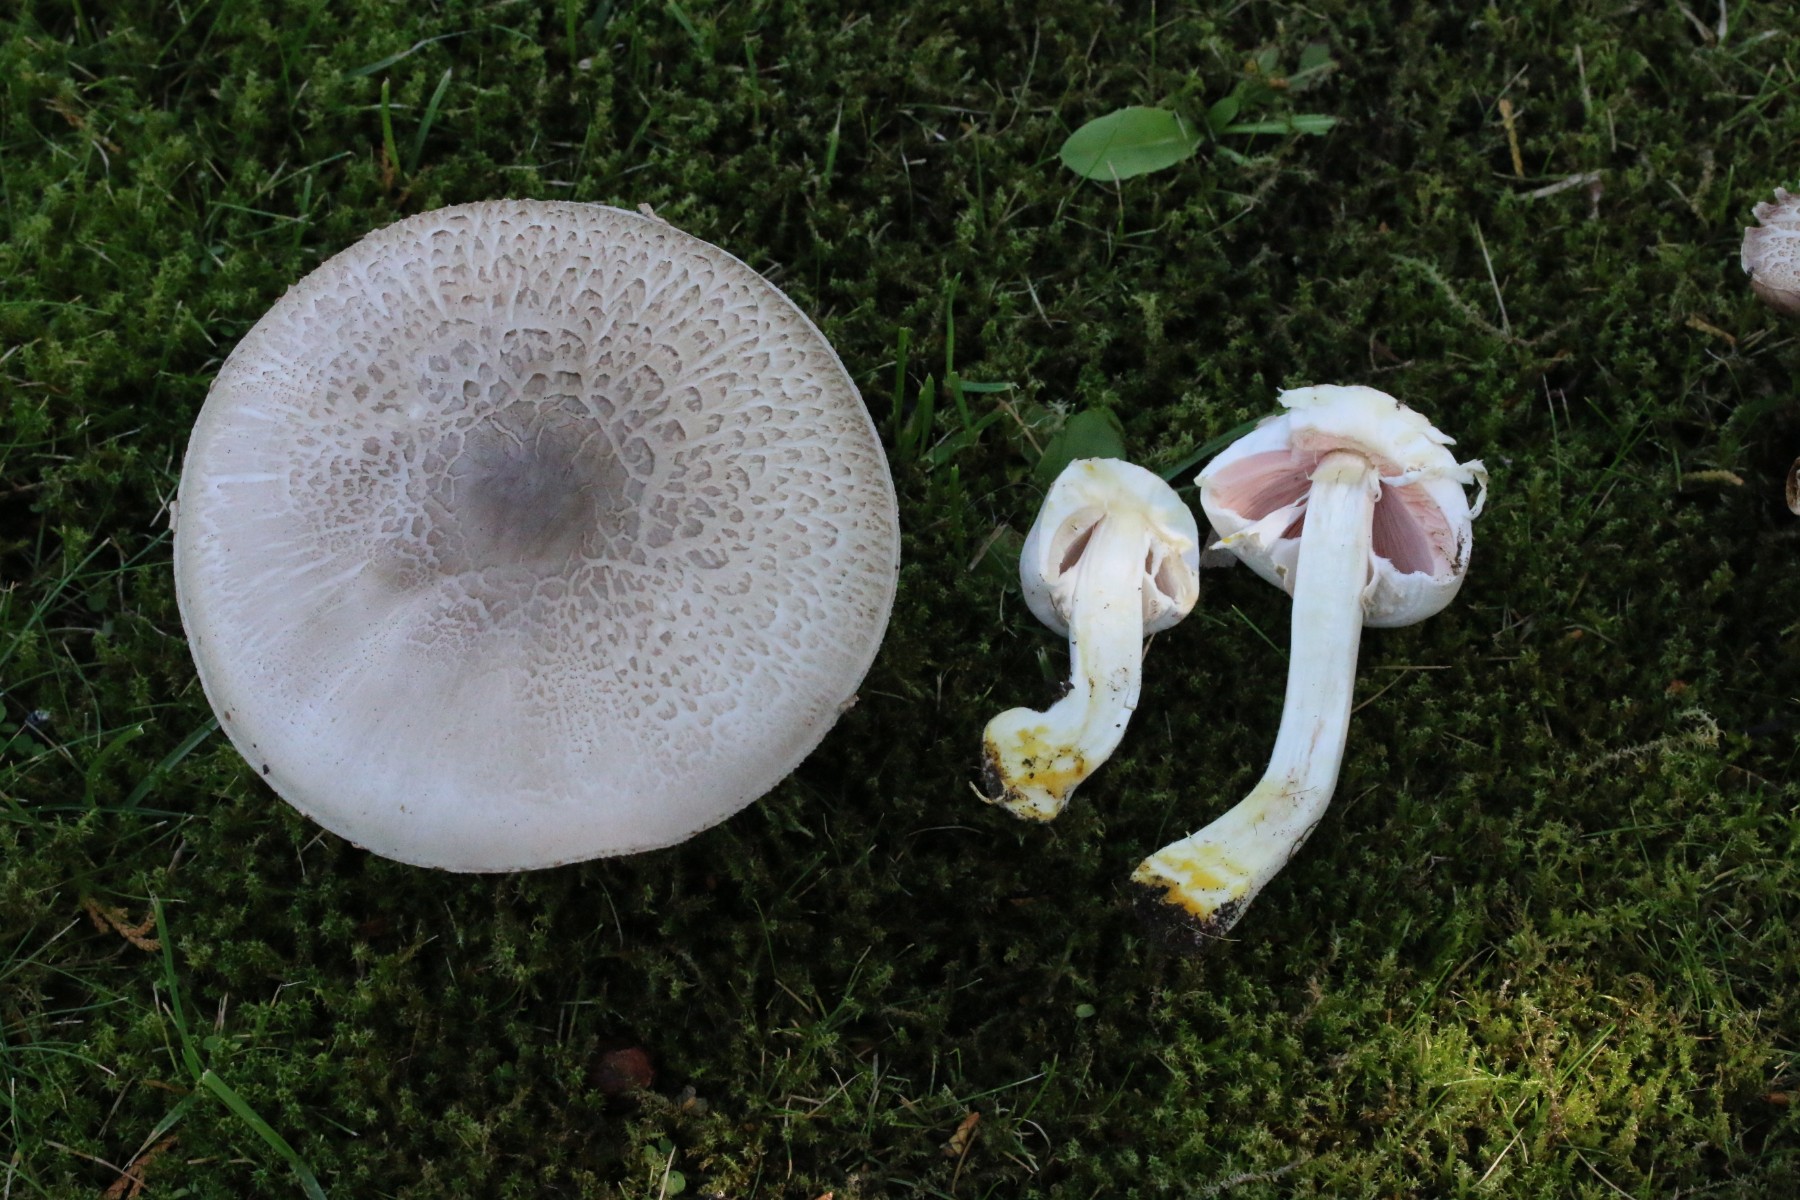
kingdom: Fungi
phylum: Basidiomycota
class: Agaricomycetes
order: Agaricales
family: Agaricaceae
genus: Agaricus
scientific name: Agaricus xanthodermus
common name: karbol-champignon
